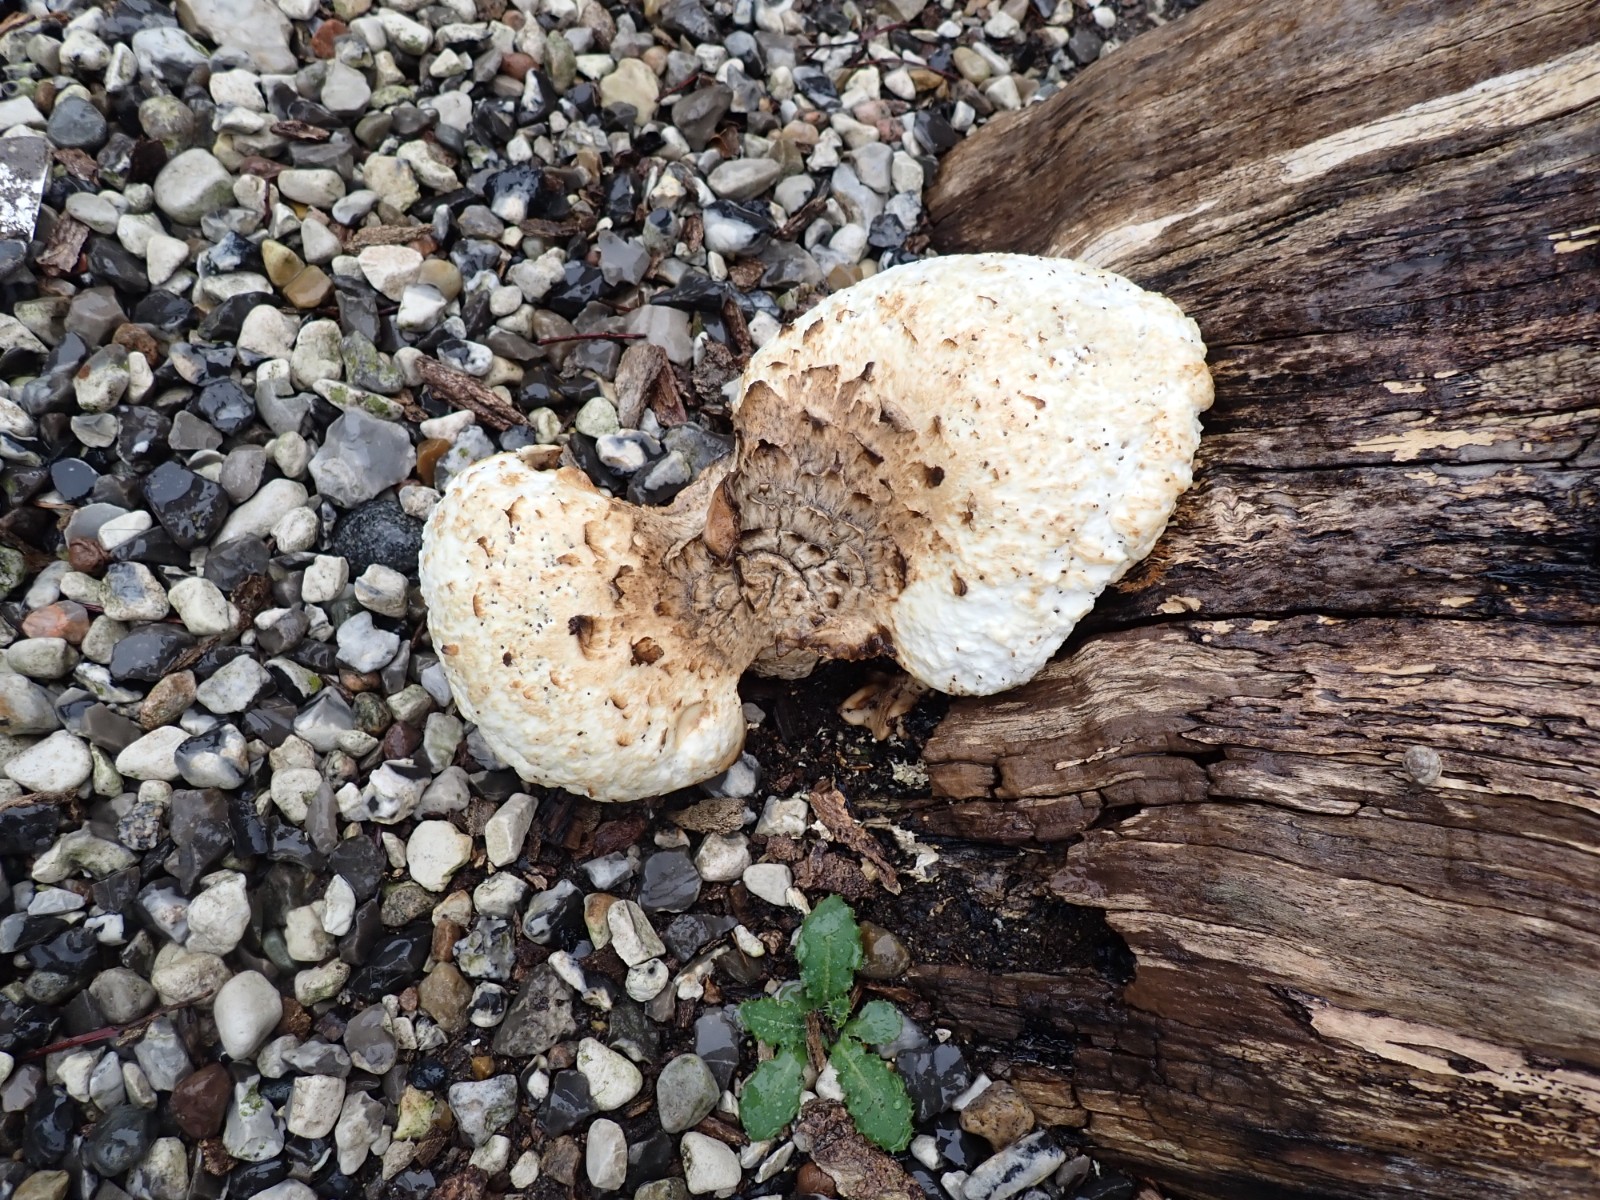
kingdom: Fungi
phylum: Basidiomycota
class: Agaricomycetes
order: Polyporales
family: Polyporaceae
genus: Cerioporus
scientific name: Cerioporus squamosus
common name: skællet stilkporesvamp
